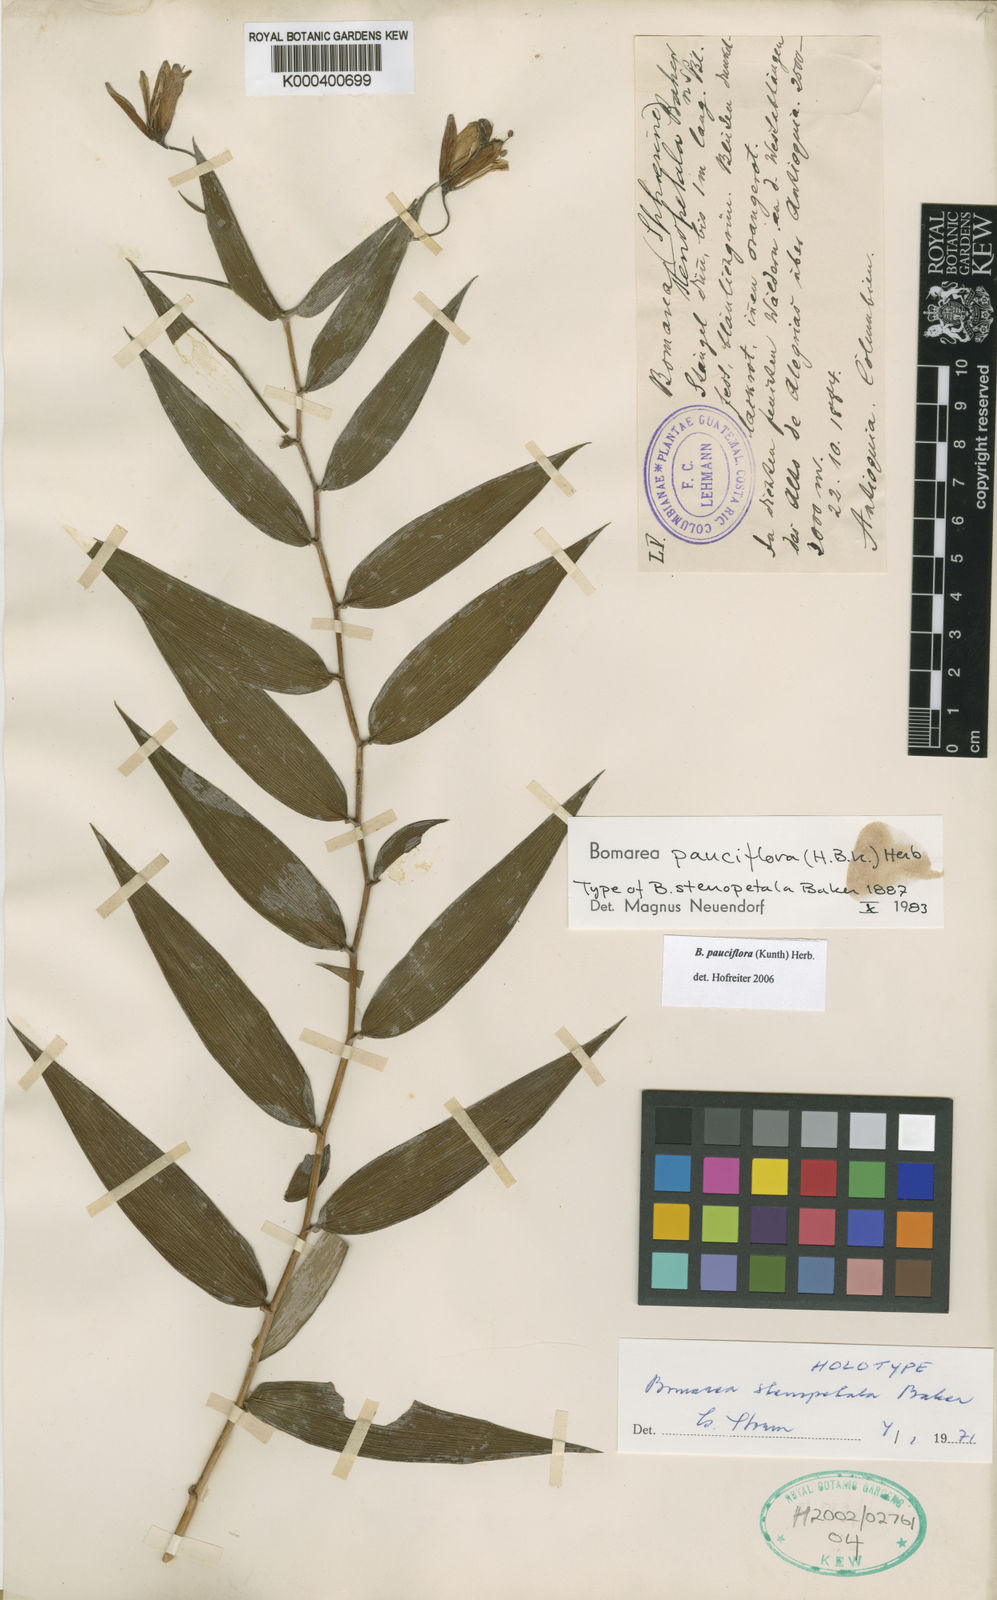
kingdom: Plantae
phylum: Tracheophyta
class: Liliopsida
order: Liliales
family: Alstroemeriaceae
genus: Bomarea
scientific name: Bomarea pauciflora
